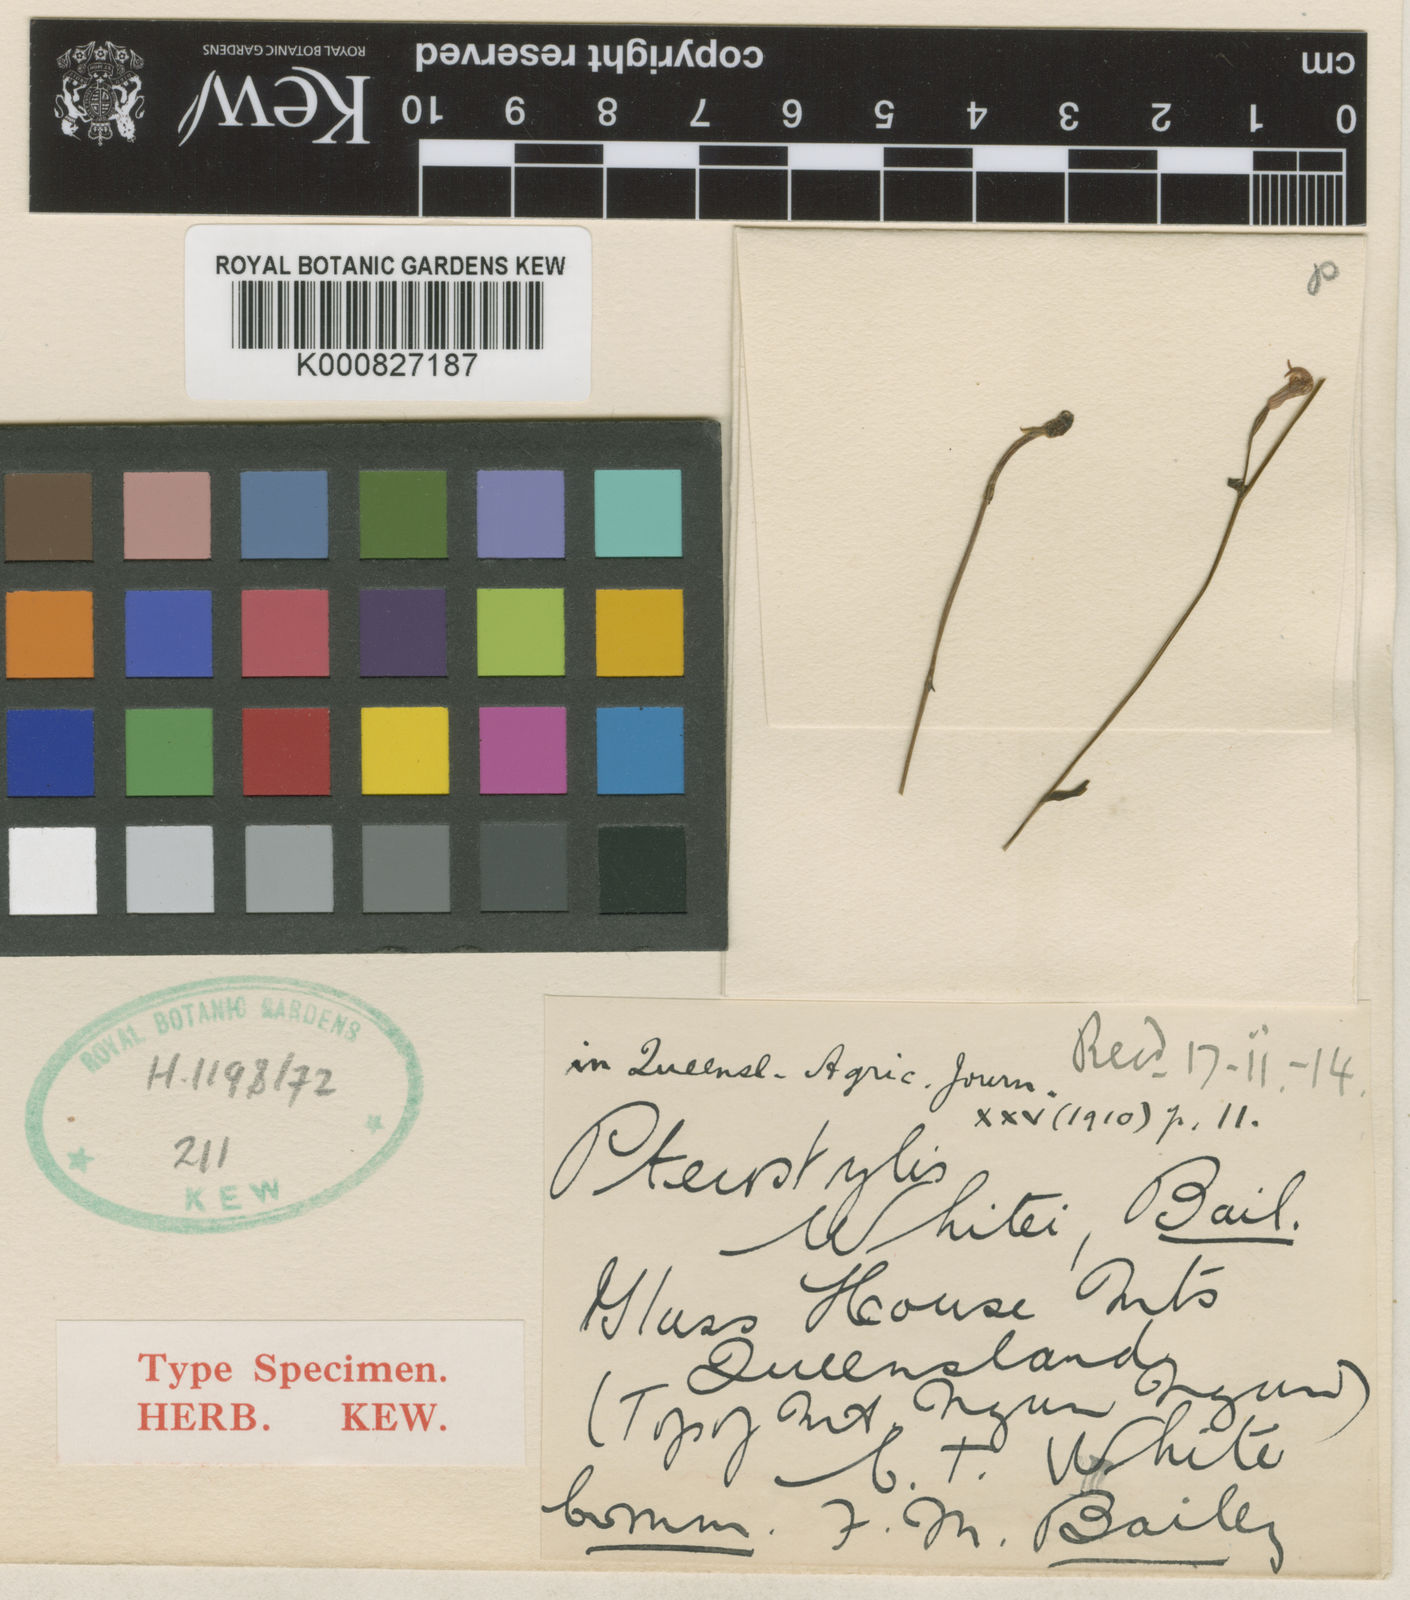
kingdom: Plantae
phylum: Tracheophyta
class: Liliopsida
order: Asparagales
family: Orchidaceae
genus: Pterostylis
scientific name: Pterostylis parviflora
